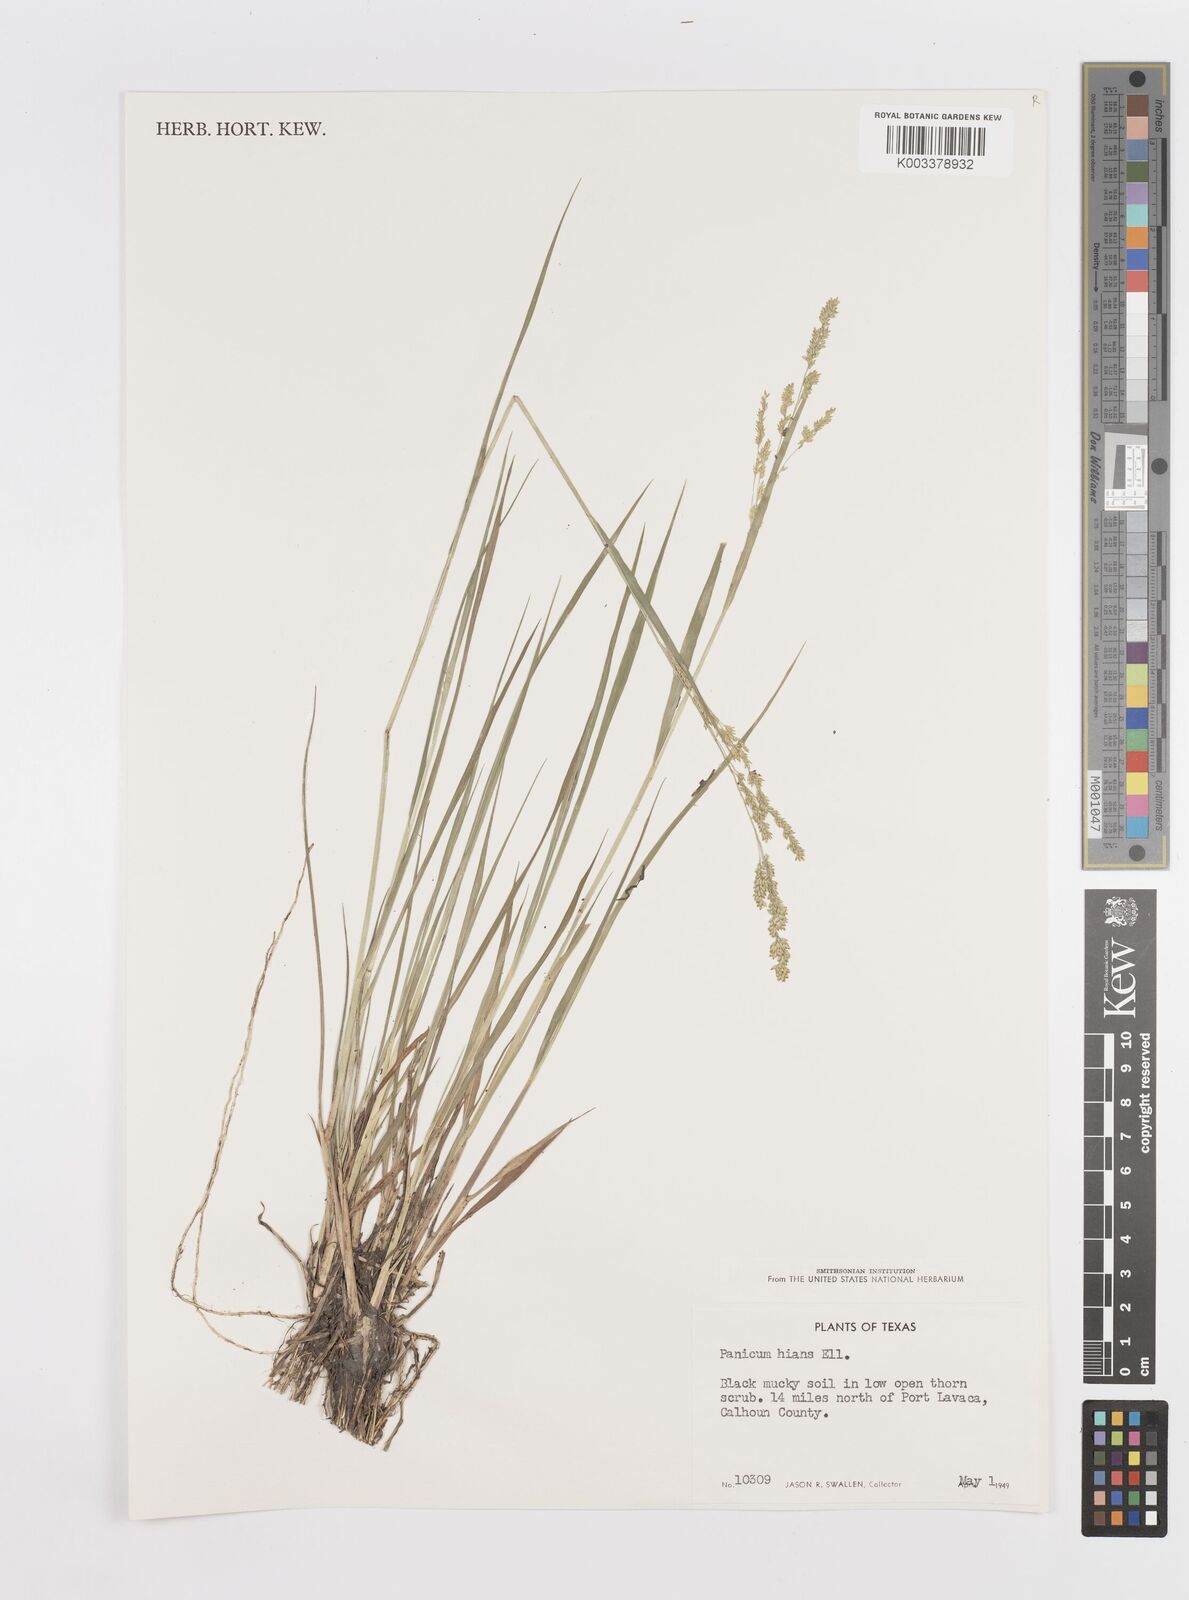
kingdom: Plantae
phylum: Tracheophyta
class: Liliopsida
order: Poales
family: Poaceae
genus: Steinchisma
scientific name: Steinchisma hians
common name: Gaping panic grass
